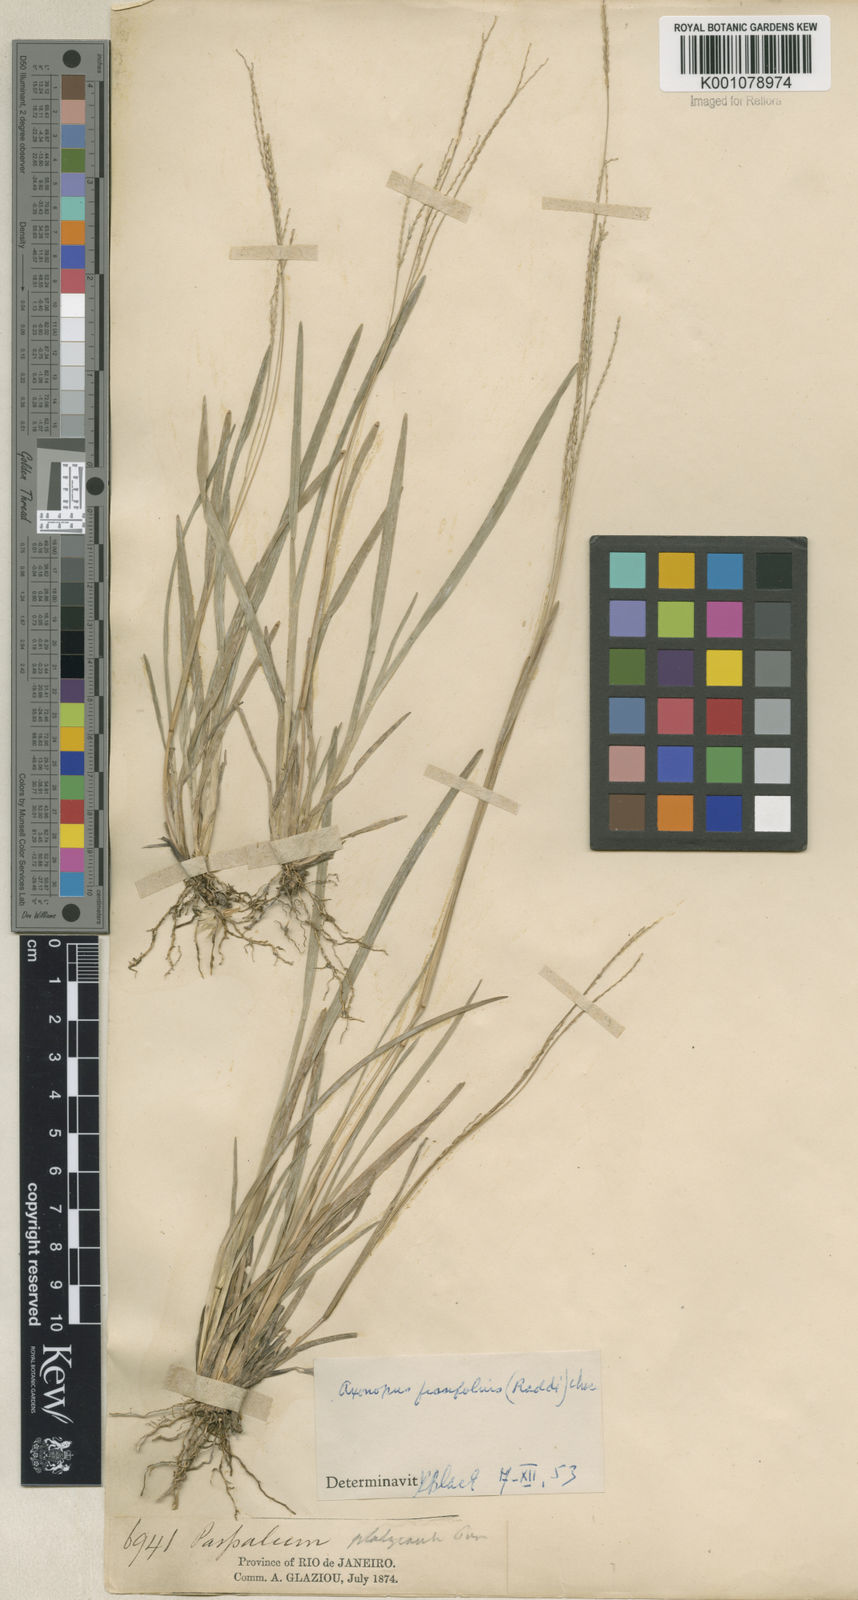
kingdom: Plantae
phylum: Tracheophyta
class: Liliopsida
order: Poales
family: Poaceae
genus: Axonopus
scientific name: Axonopus fissifolius
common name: Common carpetgrass
